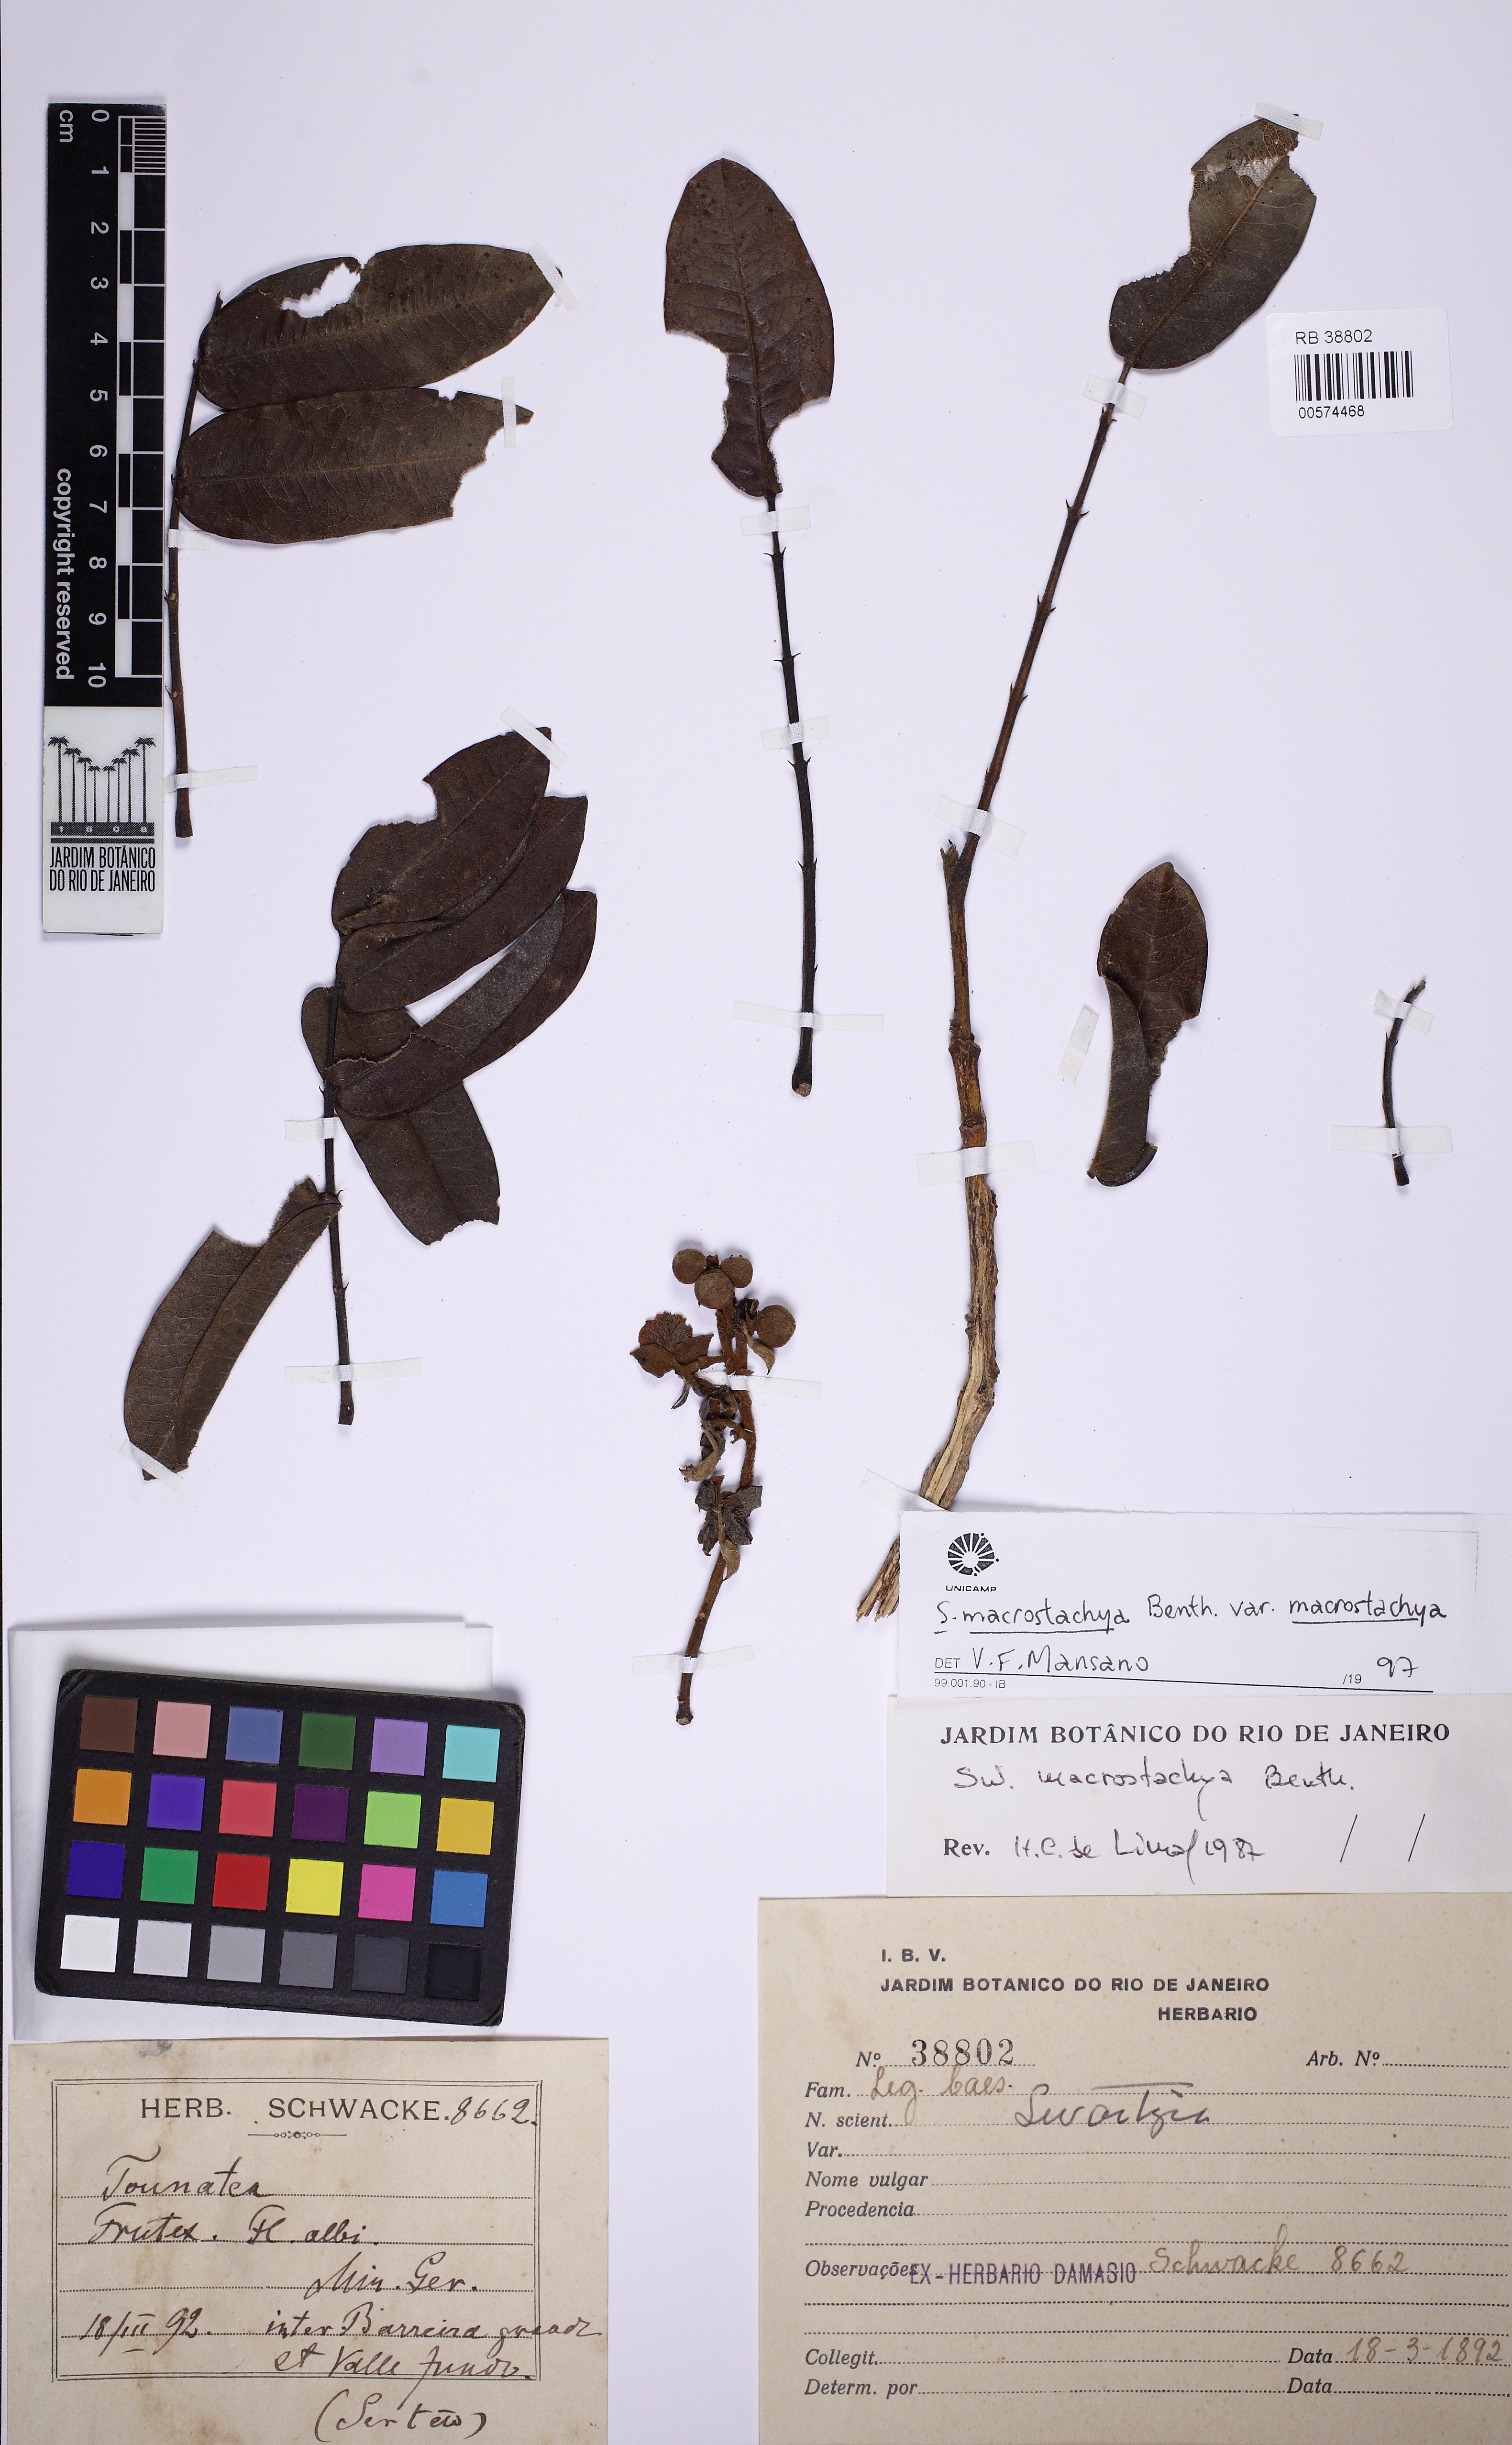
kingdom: Plantae
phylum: Tracheophyta
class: Magnoliopsida
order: Fabales
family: Fabaceae
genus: Swartzia
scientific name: Swartzia macrostachya
